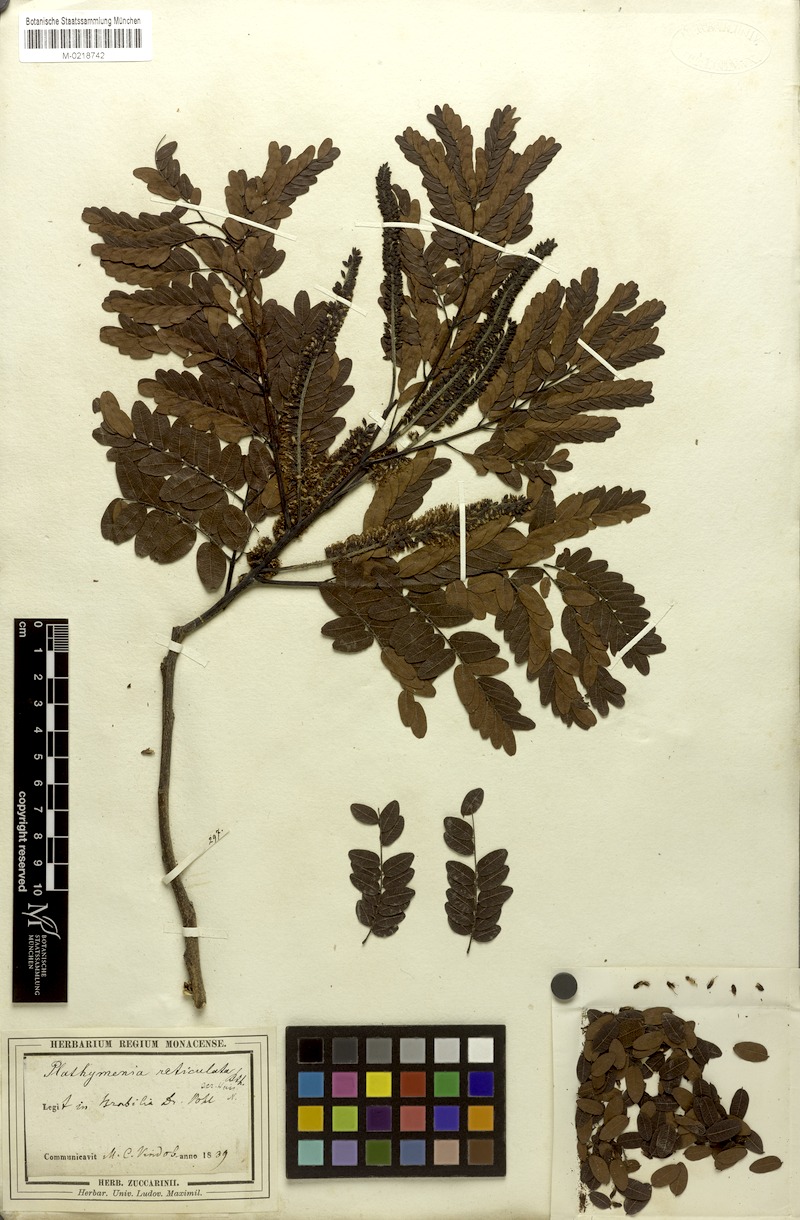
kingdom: Plantae
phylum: Tracheophyta
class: Magnoliopsida
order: Fabales
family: Fabaceae
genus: Plathymenia
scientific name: Plathymenia reticulata
